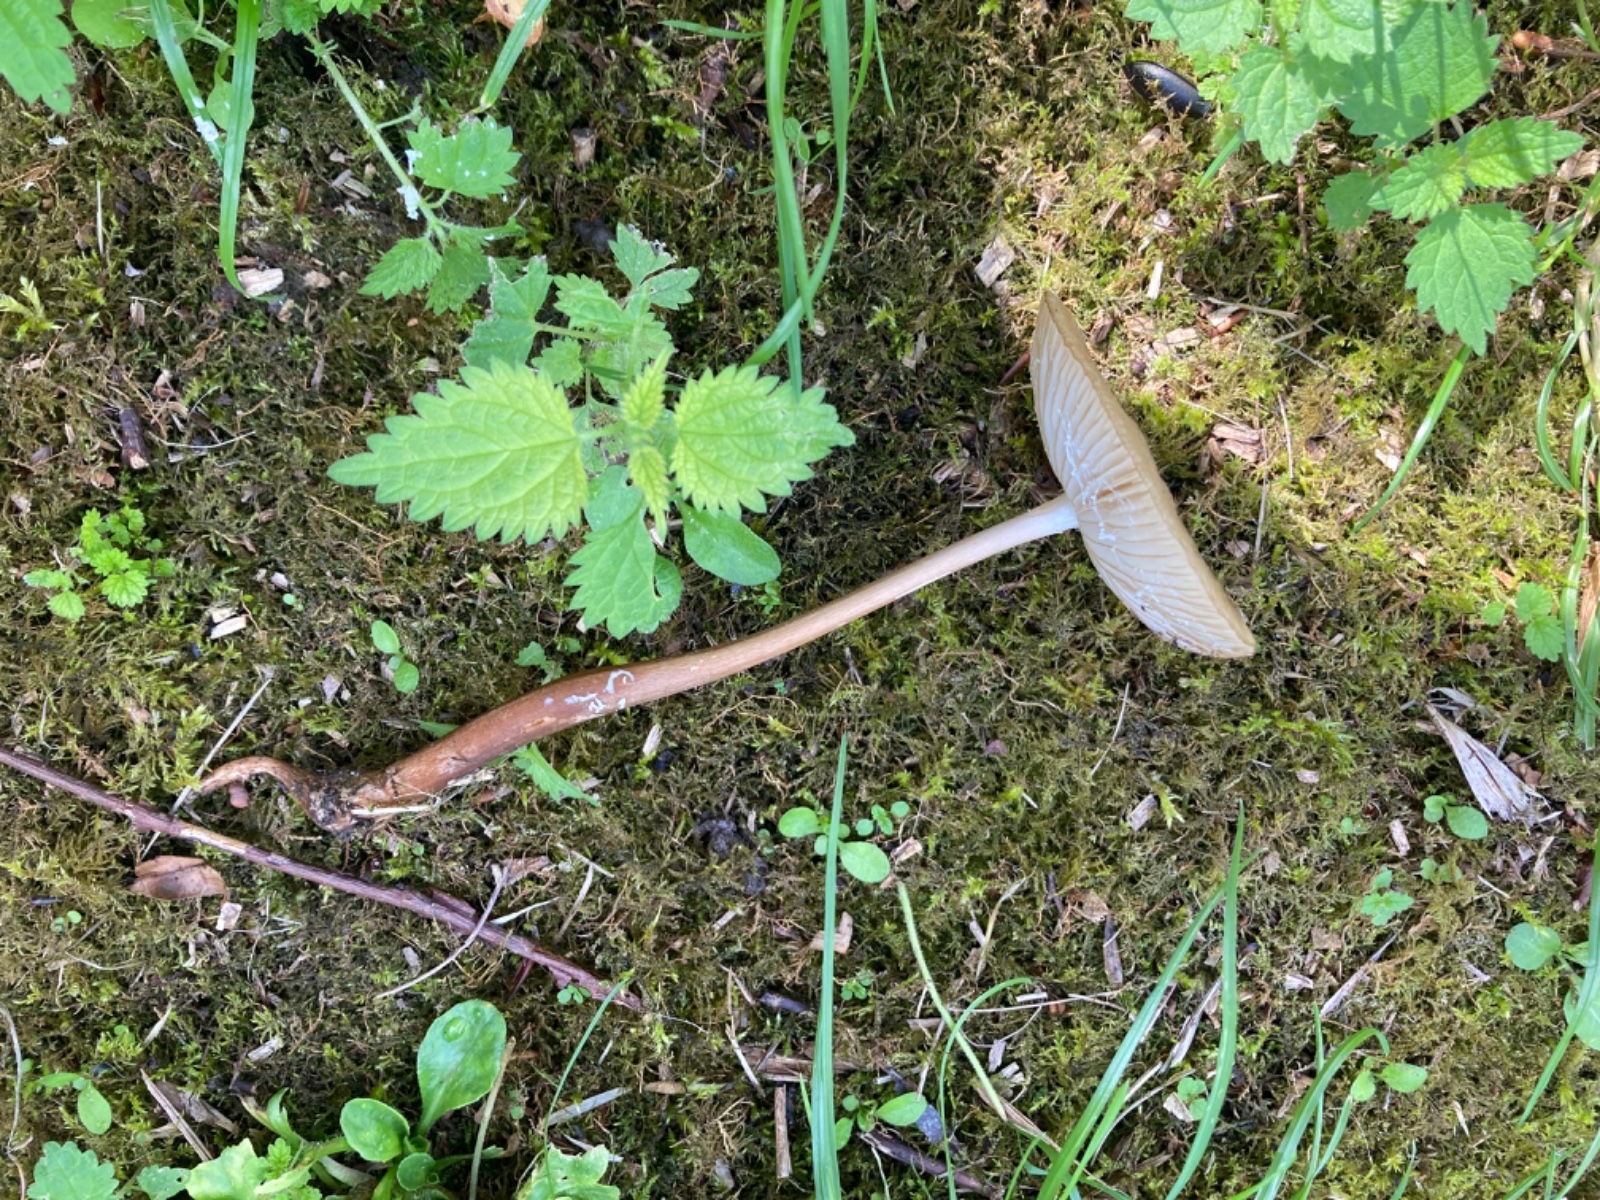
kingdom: Fungi
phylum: Basidiomycota
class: Agaricomycetes
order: Agaricales
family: Physalacriaceae
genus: Hymenopellis
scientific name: Hymenopellis radicata
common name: almindelig pælerodshat
